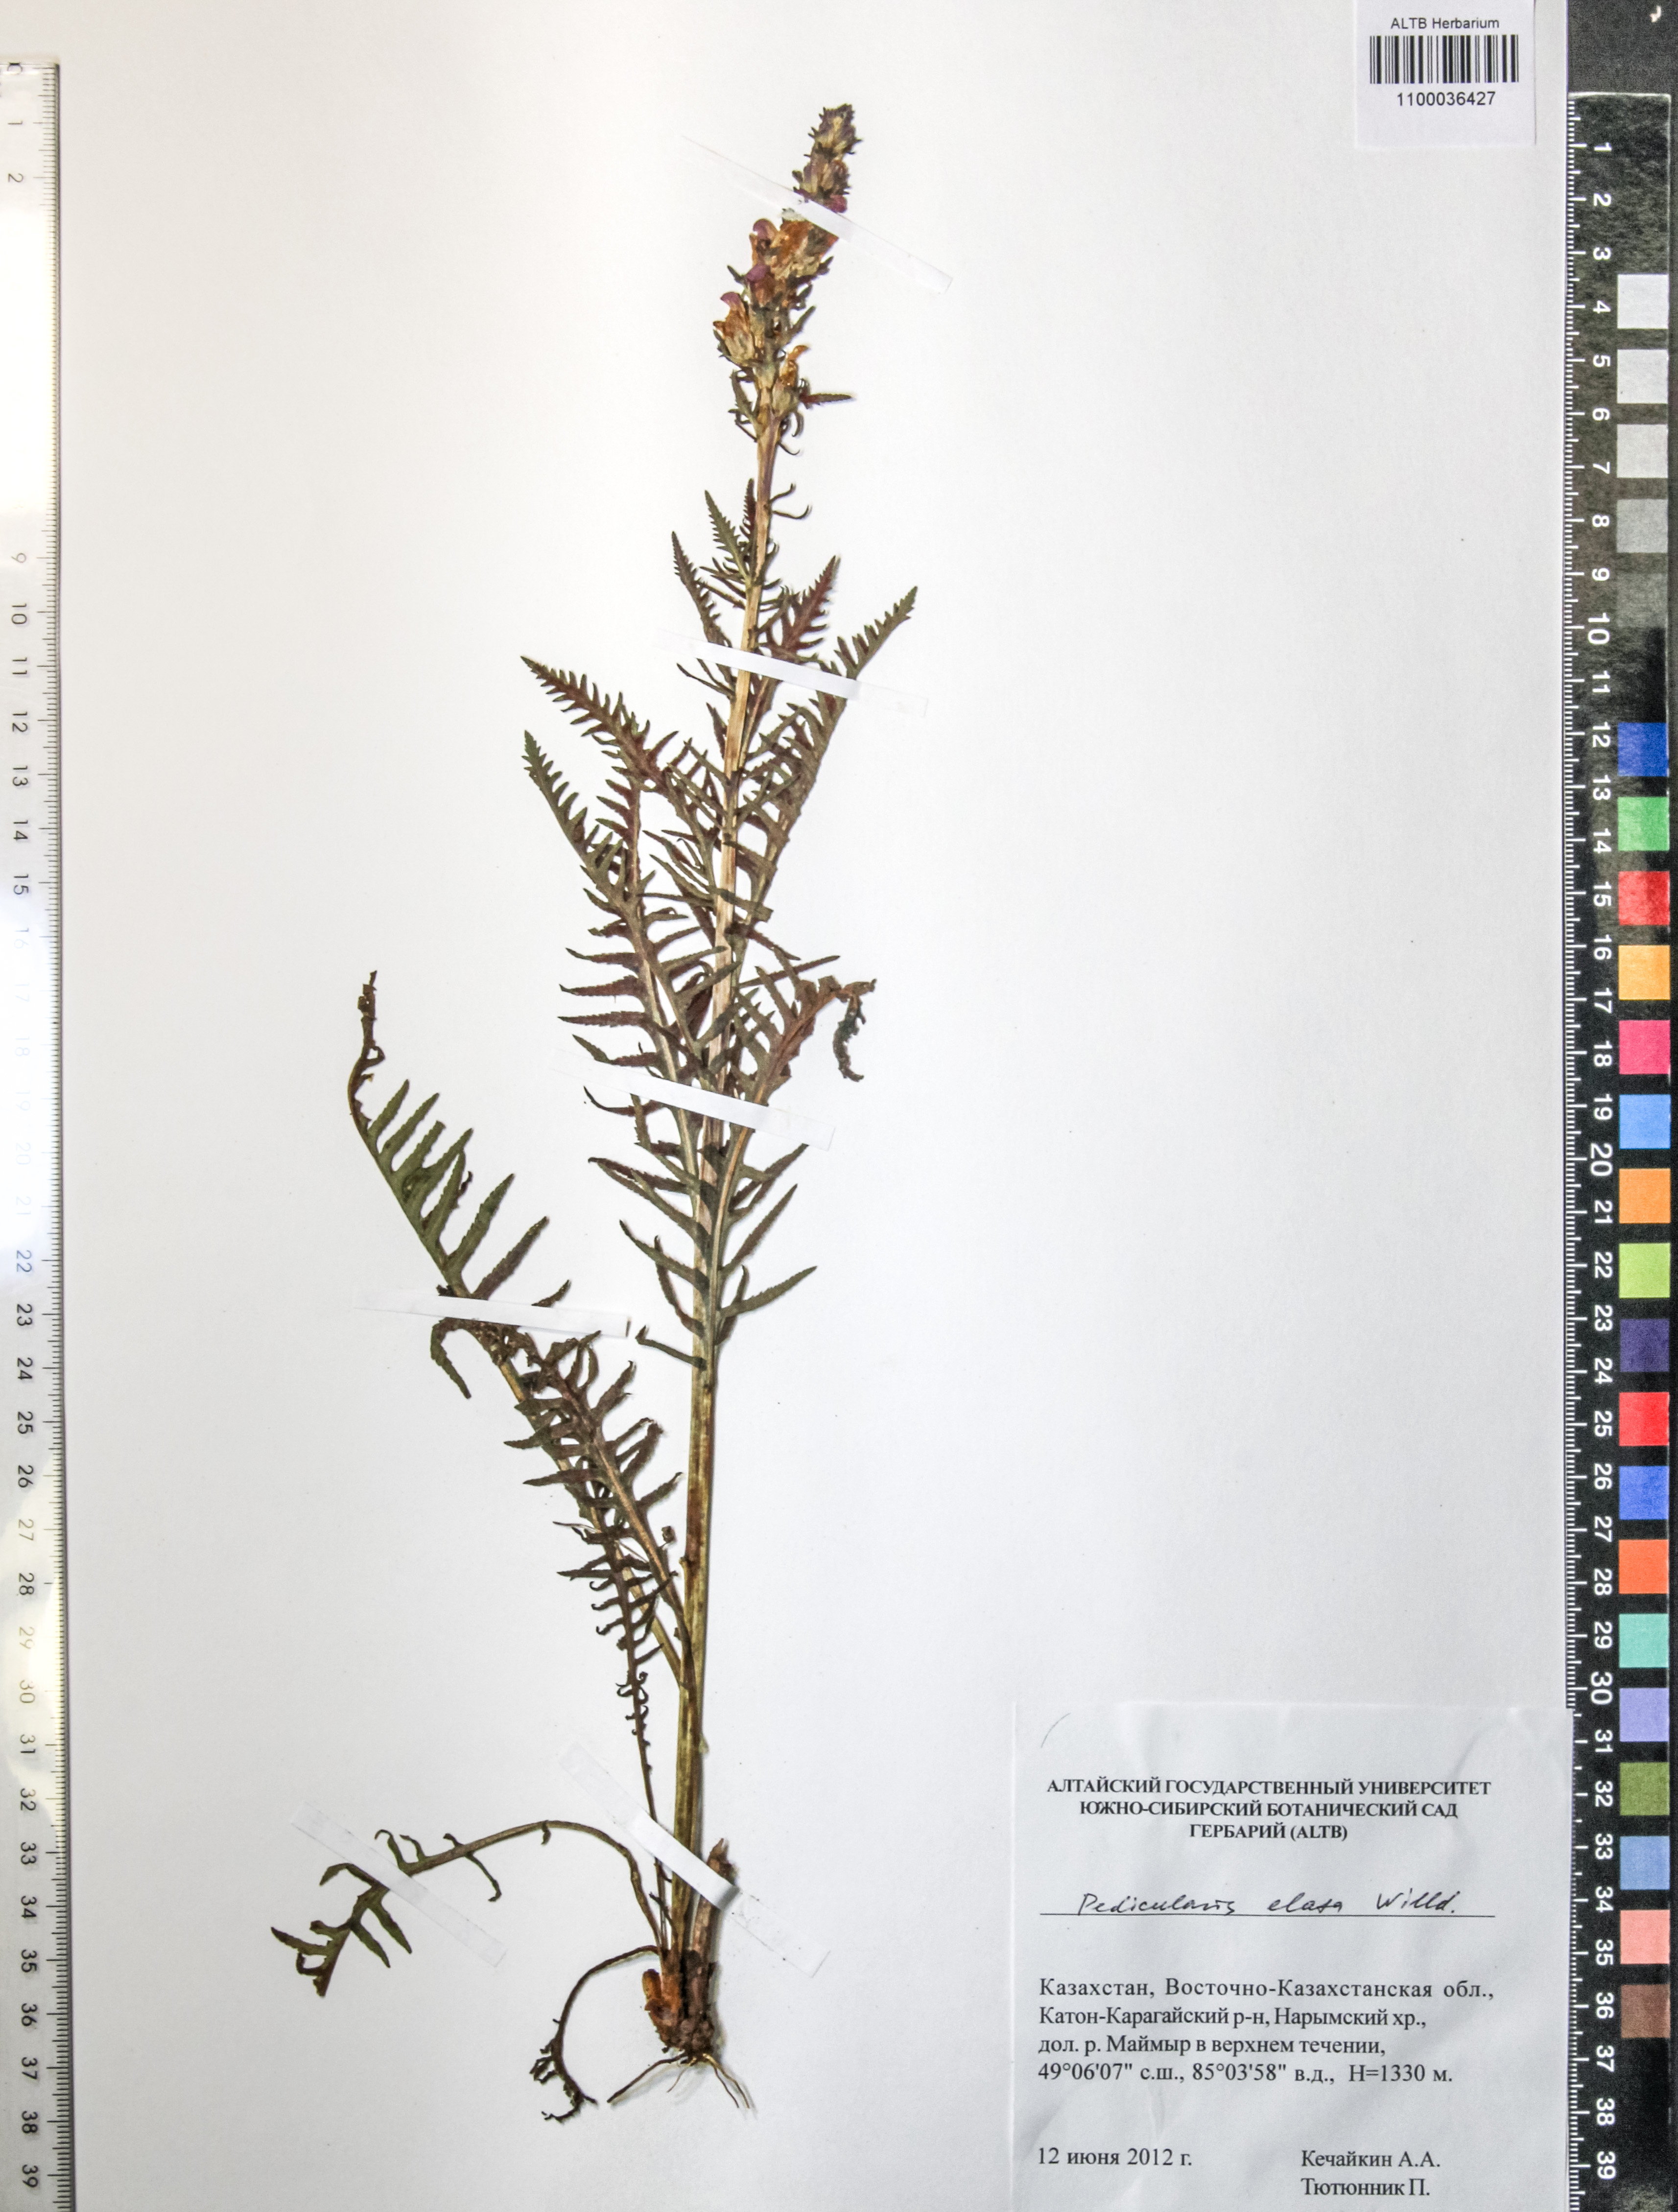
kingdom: Plantae
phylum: Tracheophyta
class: Magnoliopsida
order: Lamiales
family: Orobanchaceae
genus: Pedicularis
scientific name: Pedicularis elata
